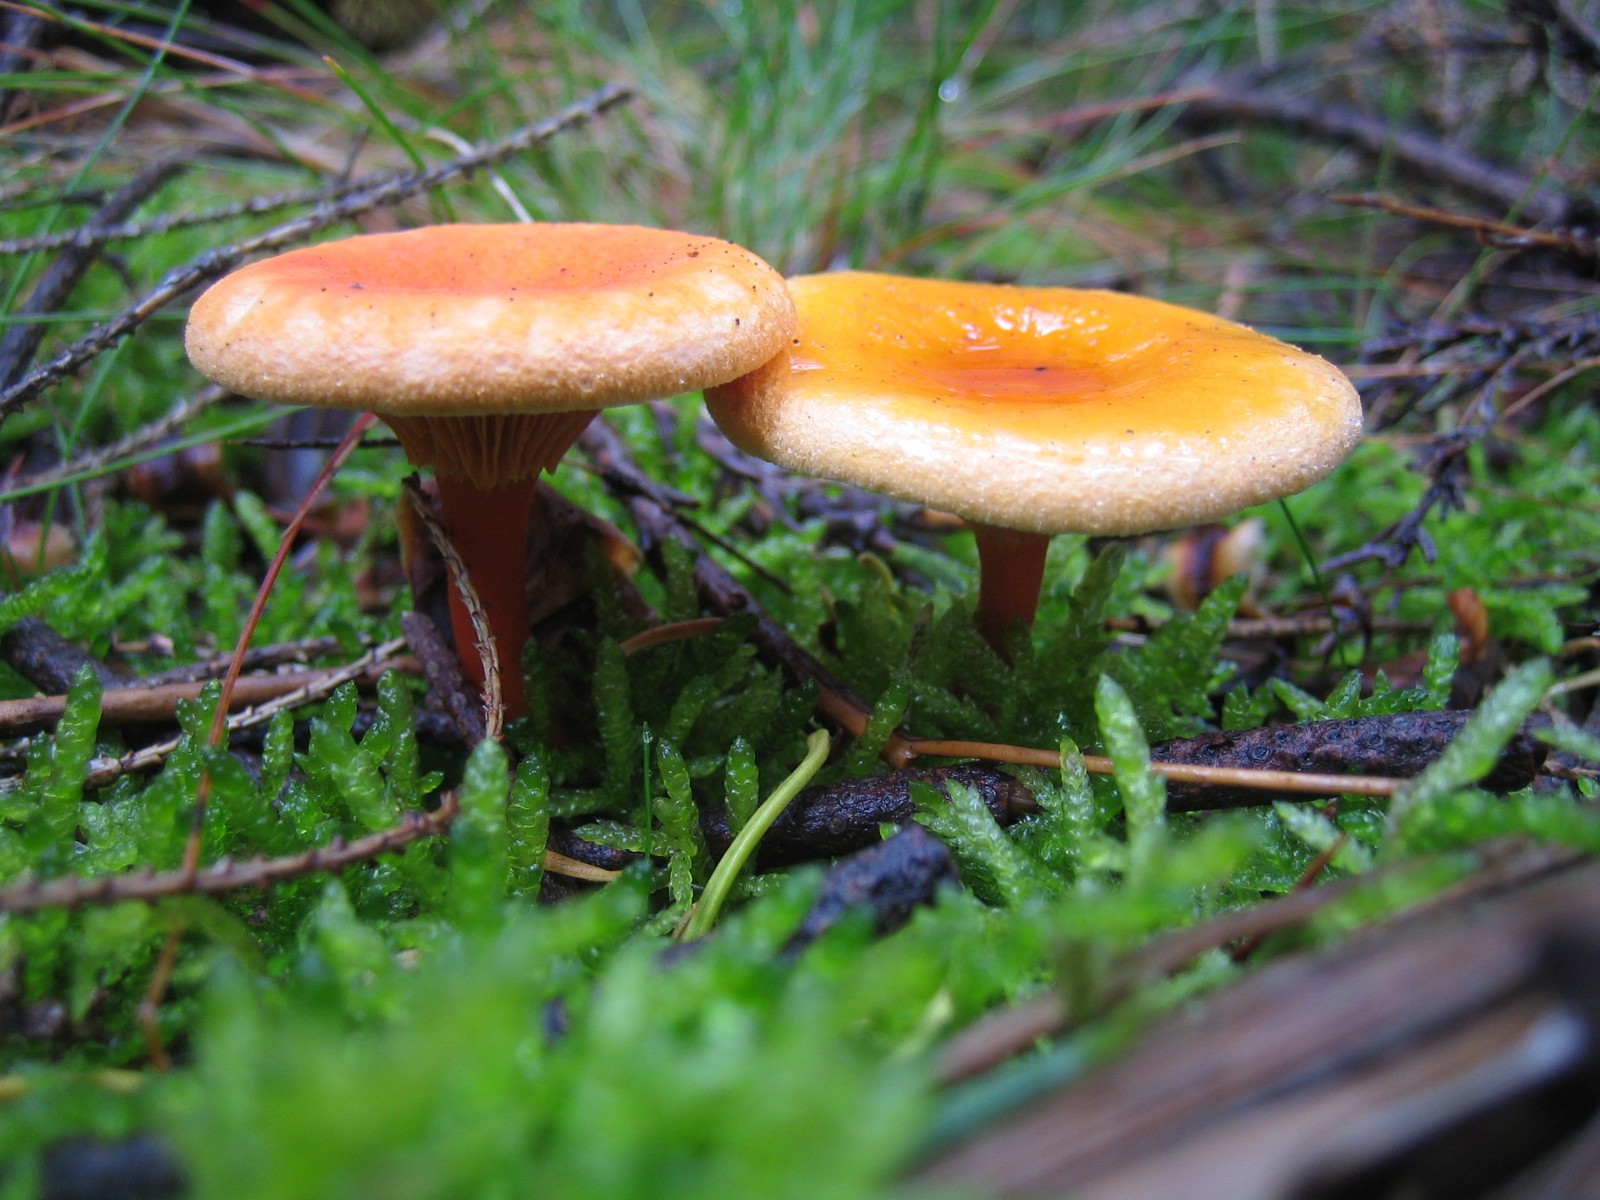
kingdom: Fungi
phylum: Basidiomycota
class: Agaricomycetes
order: Boletales
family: Hygrophoropsidaceae
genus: Hygrophoropsis
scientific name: Hygrophoropsis aurantiaca
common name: almindelig orangekantarel
